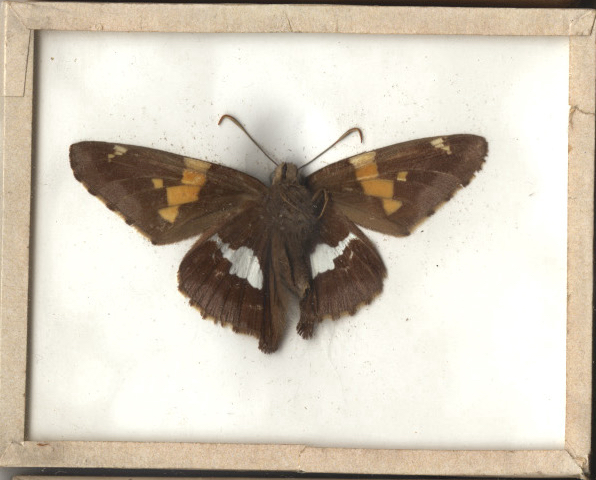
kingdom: Animalia
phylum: Arthropoda
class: Insecta
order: Lepidoptera
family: Hesperiidae
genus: Epargyreus
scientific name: Epargyreus clarus
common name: Silver-spotted Skipper
